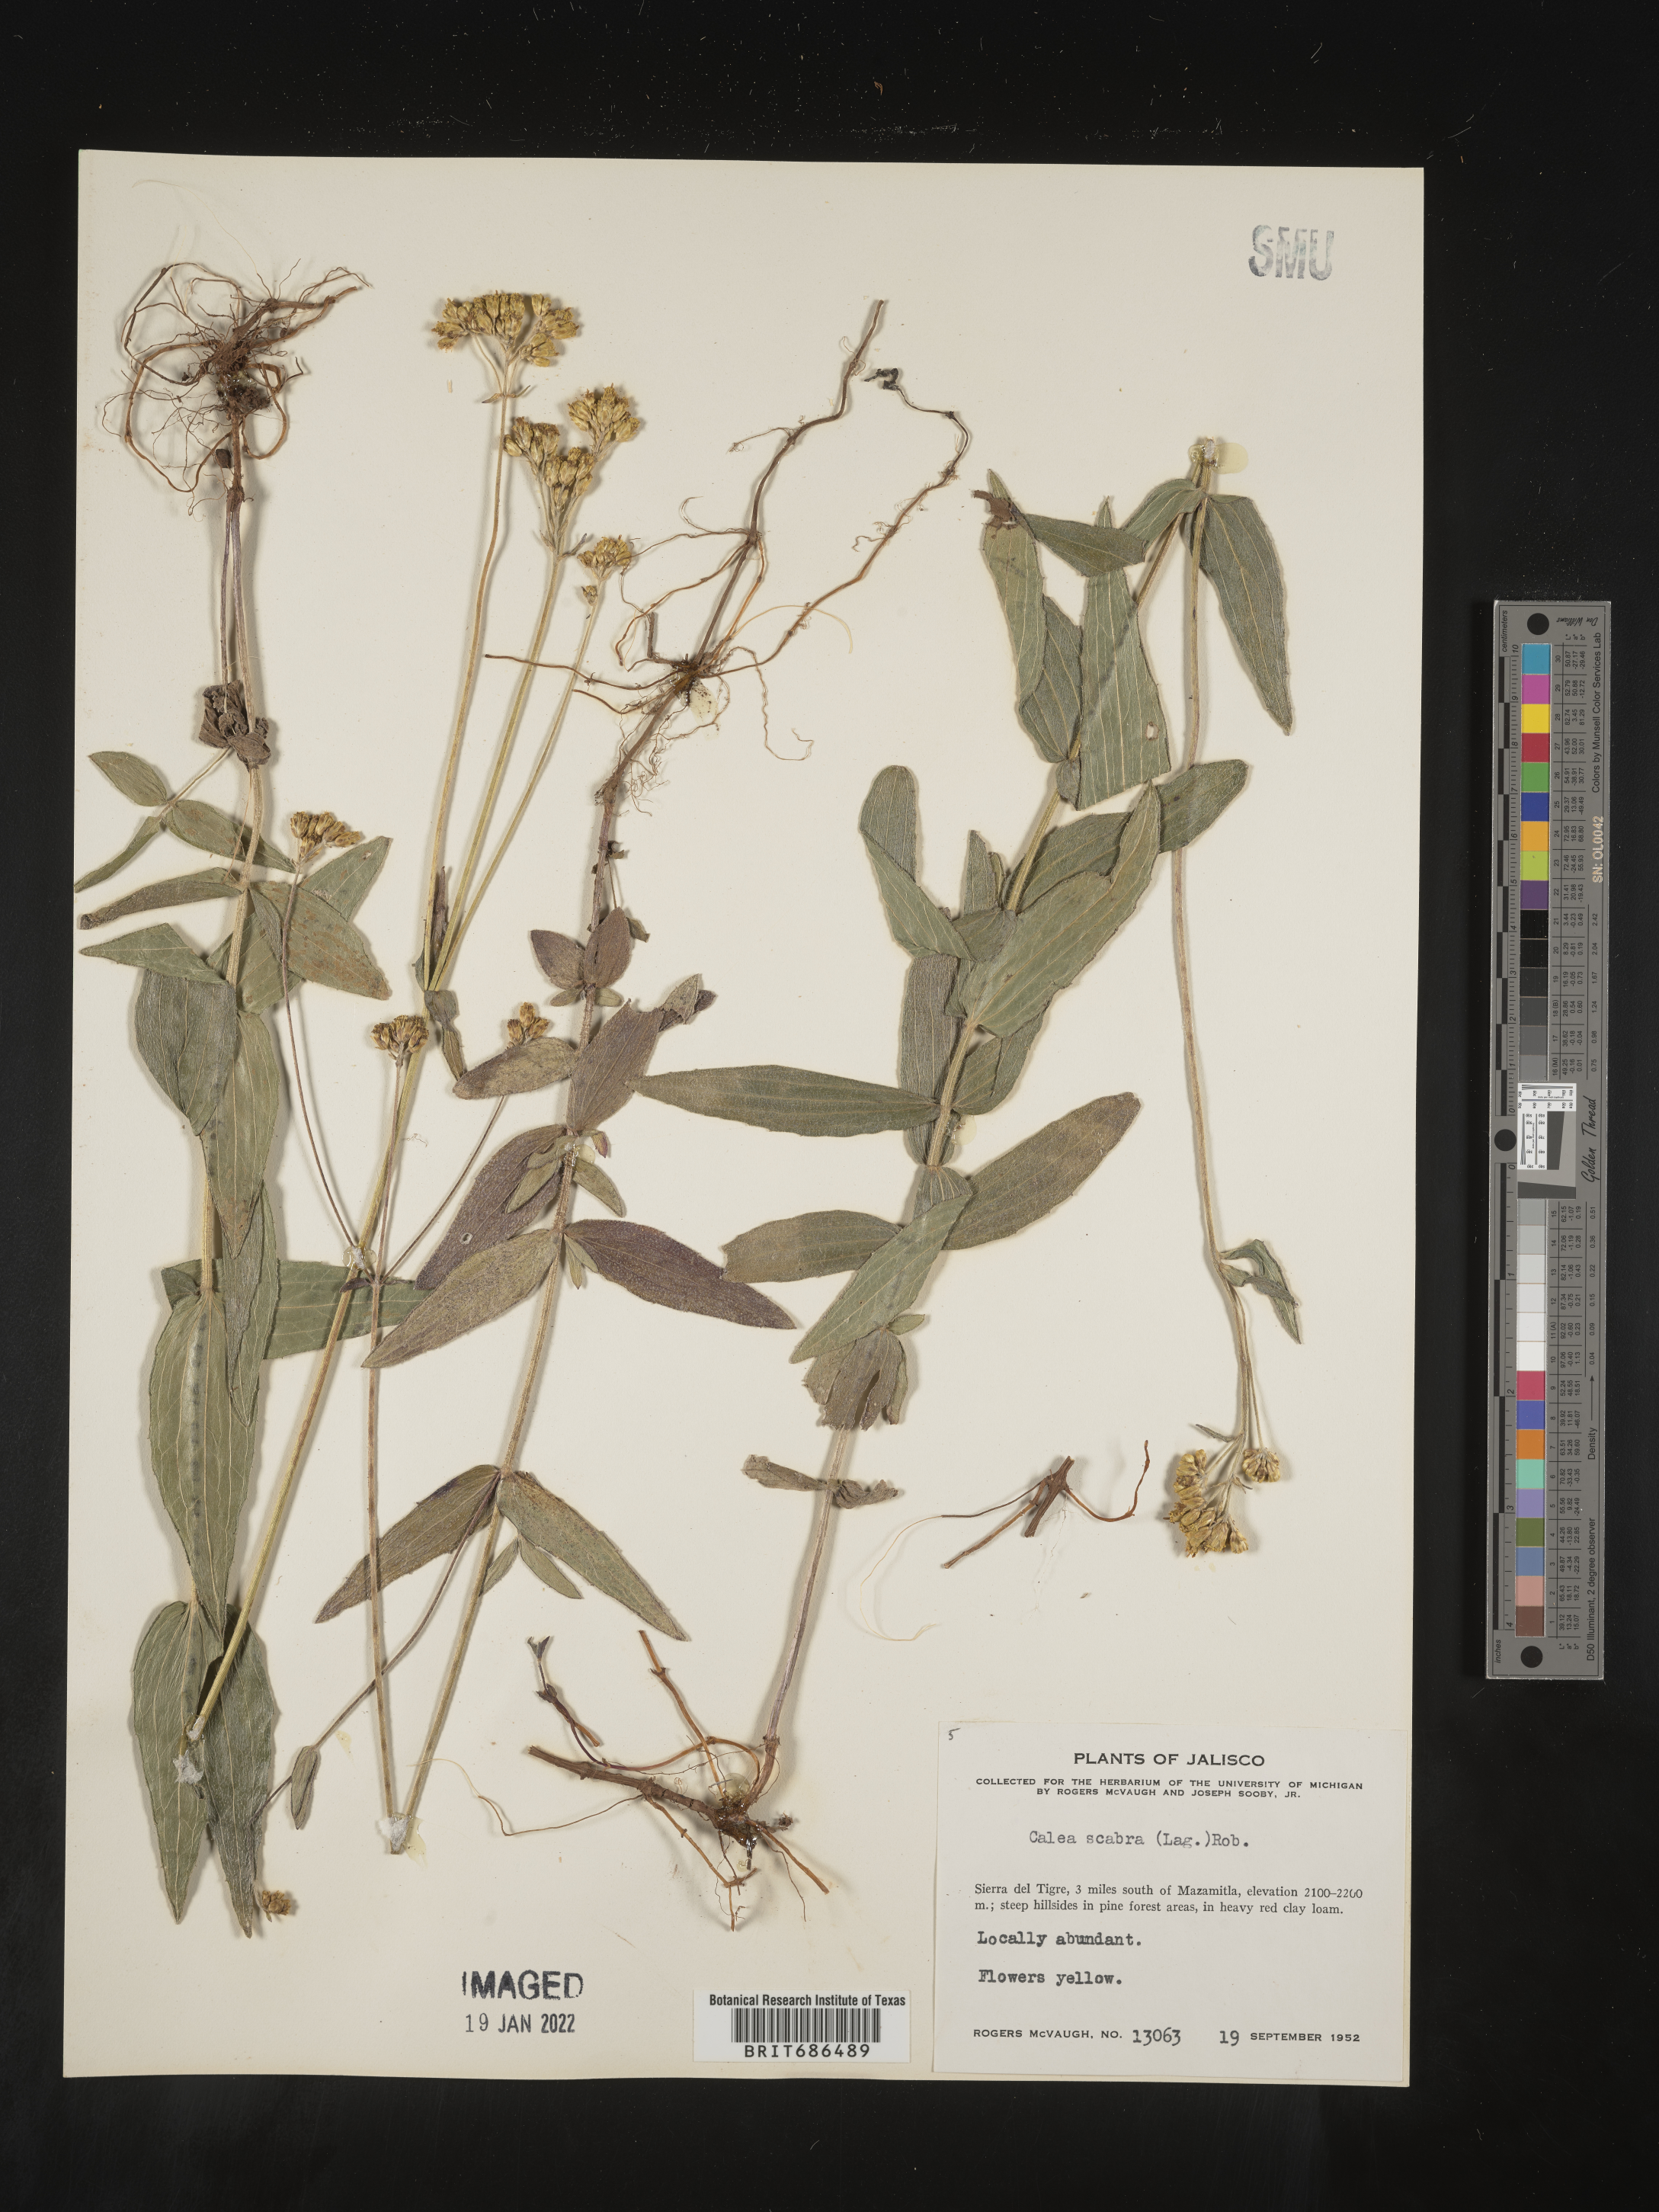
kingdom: Plantae
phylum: Tracheophyta
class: Magnoliopsida
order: Asterales
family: Asteraceae
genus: Alloispermum
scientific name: Alloispermum scabrum
